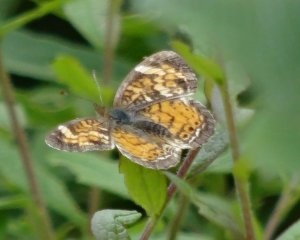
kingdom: Animalia
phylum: Arthropoda
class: Insecta
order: Lepidoptera
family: Nymphalidae
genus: Phyciodes
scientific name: Phyciodes tharos
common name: Northern Crescent
